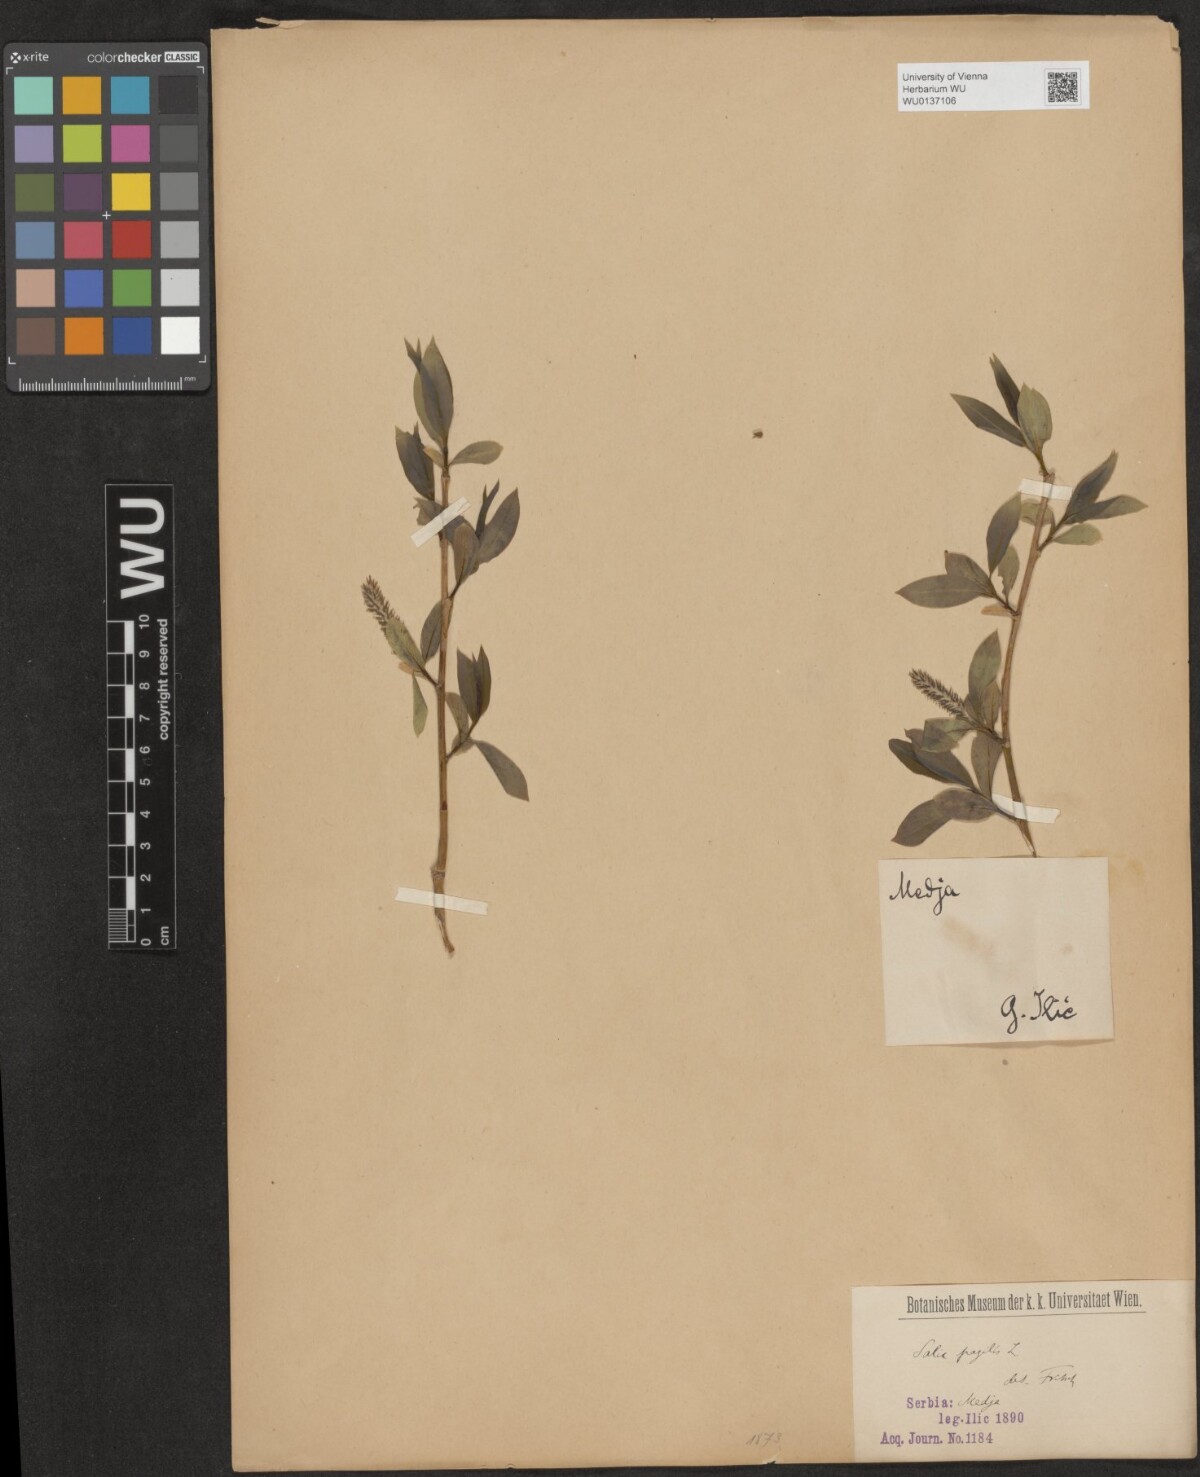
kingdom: Plantae
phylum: Tracheophyta
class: Magnoliopsida
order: Malpighiales
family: Salicaceae
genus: Salix
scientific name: Salix fragilis
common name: Crack willow
